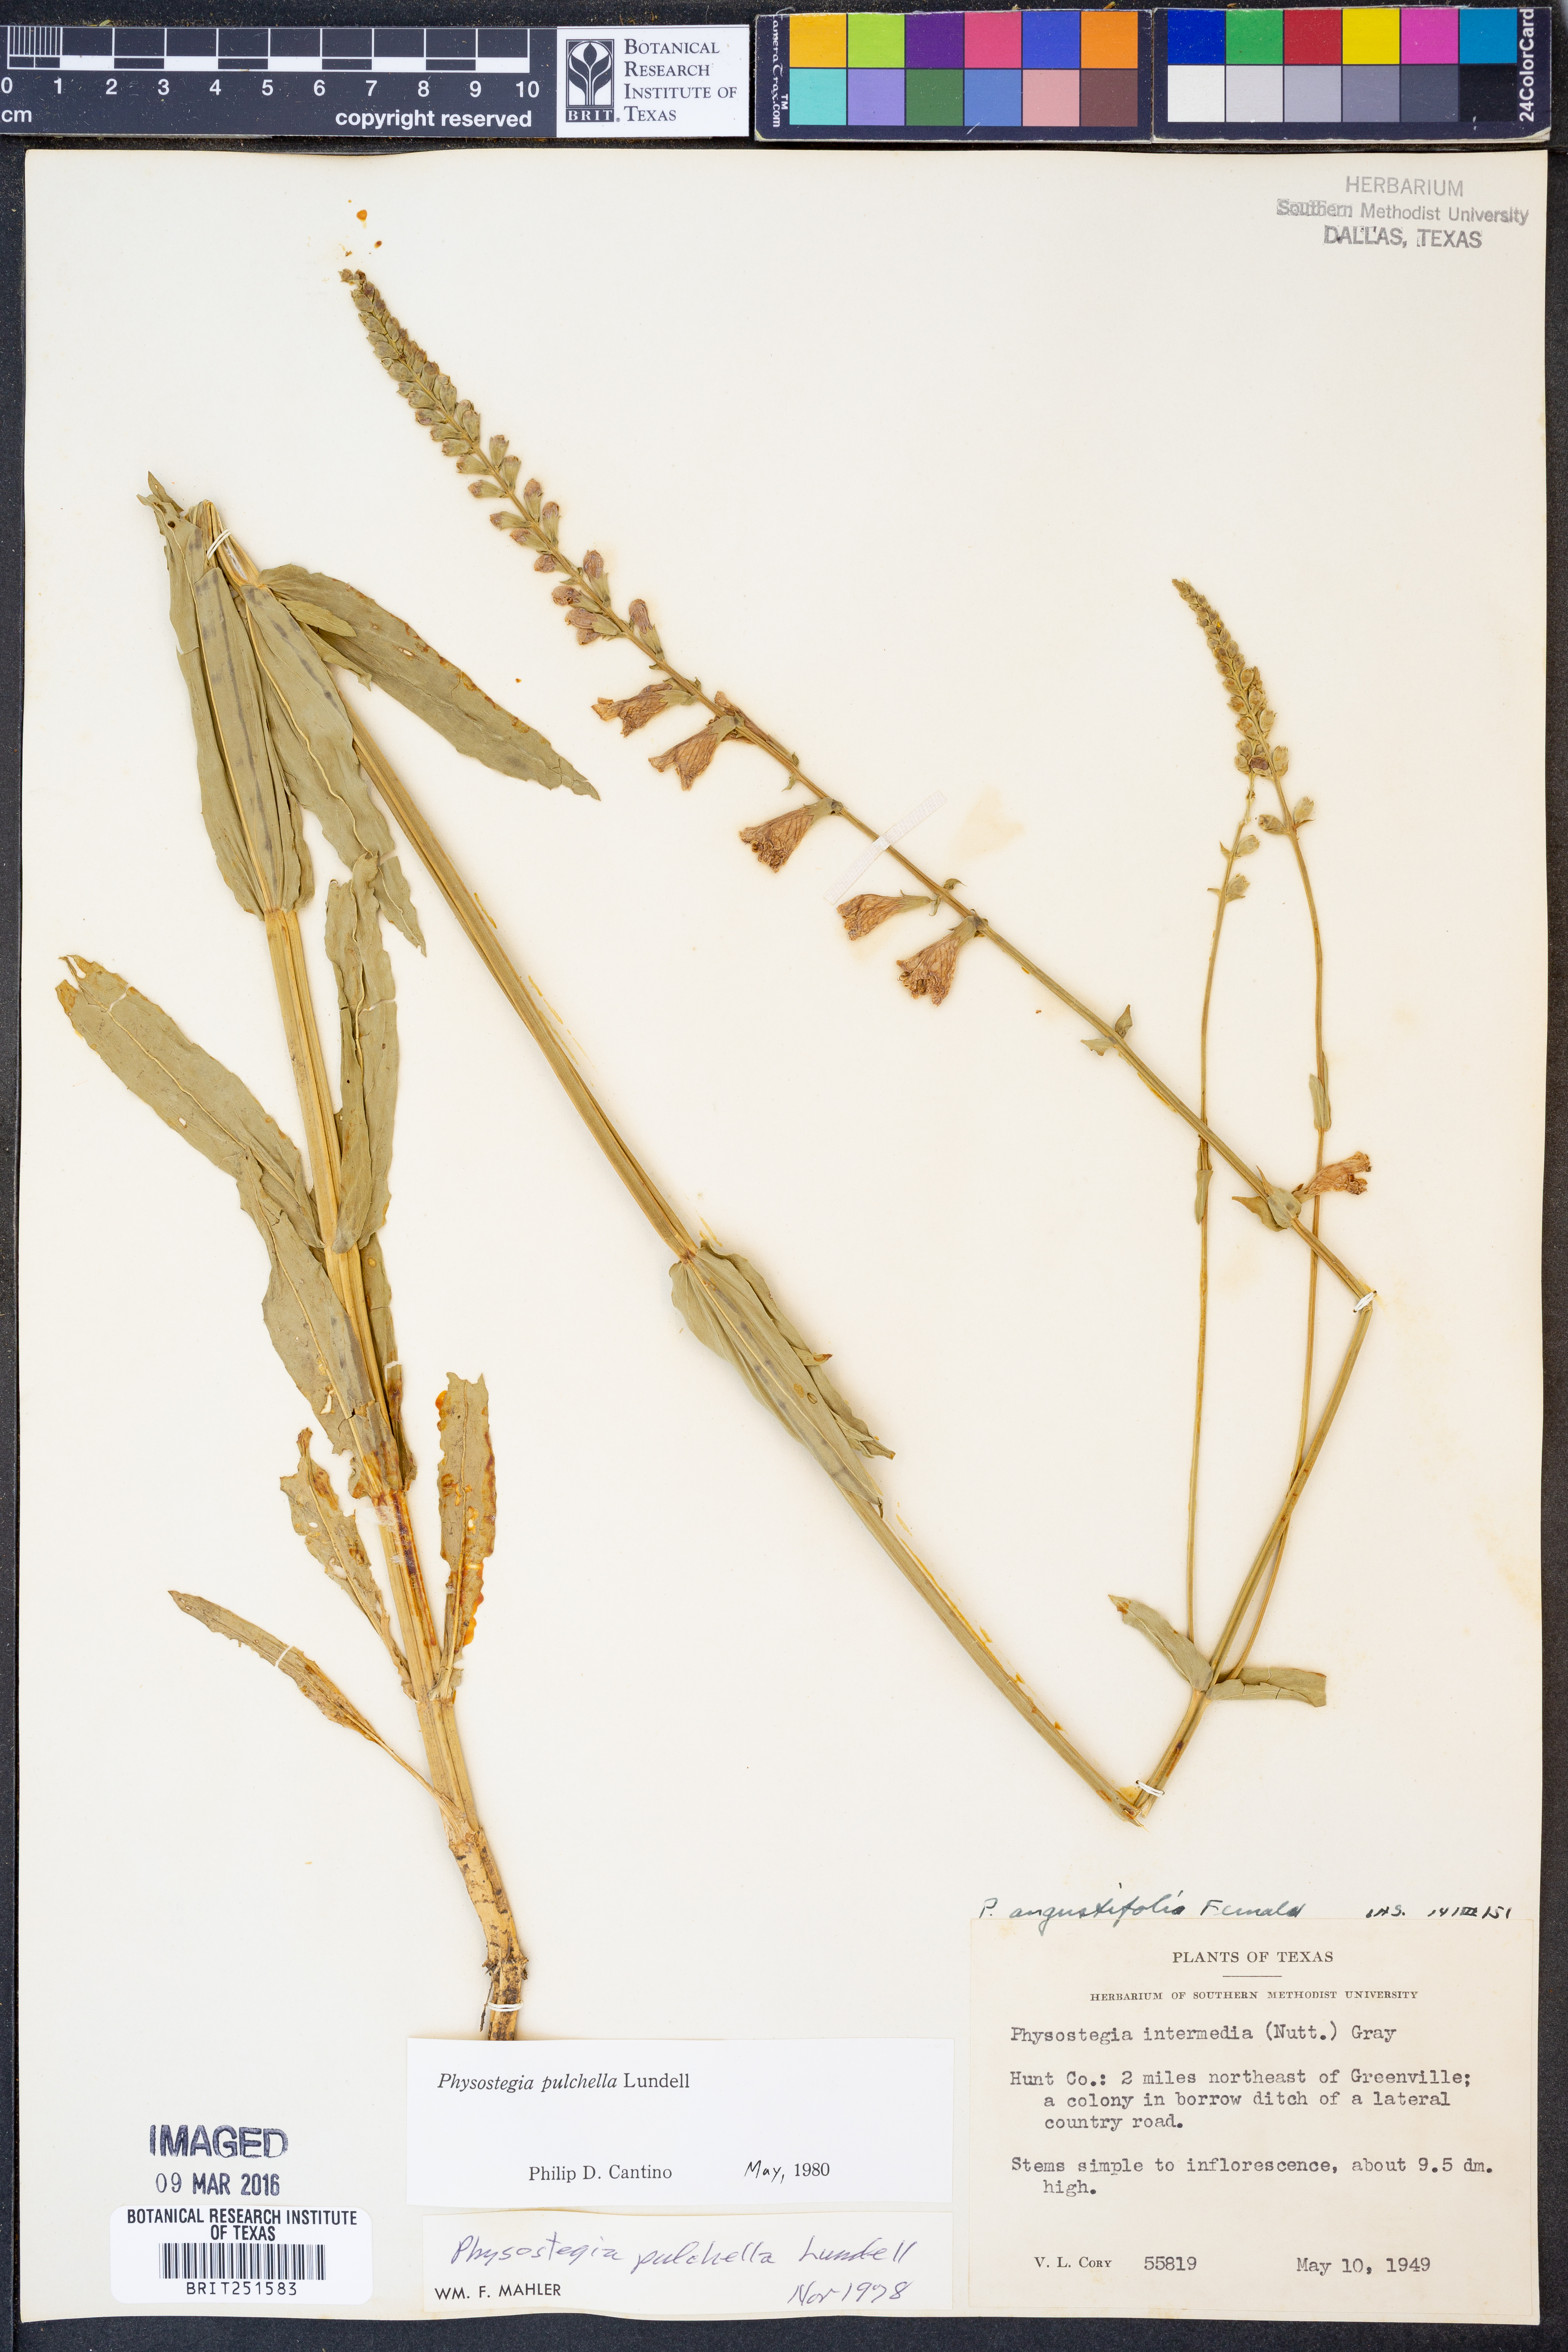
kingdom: Plantae
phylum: Tracheophyta
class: Magnoliopsida
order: Lamiales
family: Lamiaceae
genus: Physostegia
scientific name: Physostegia pulchella
